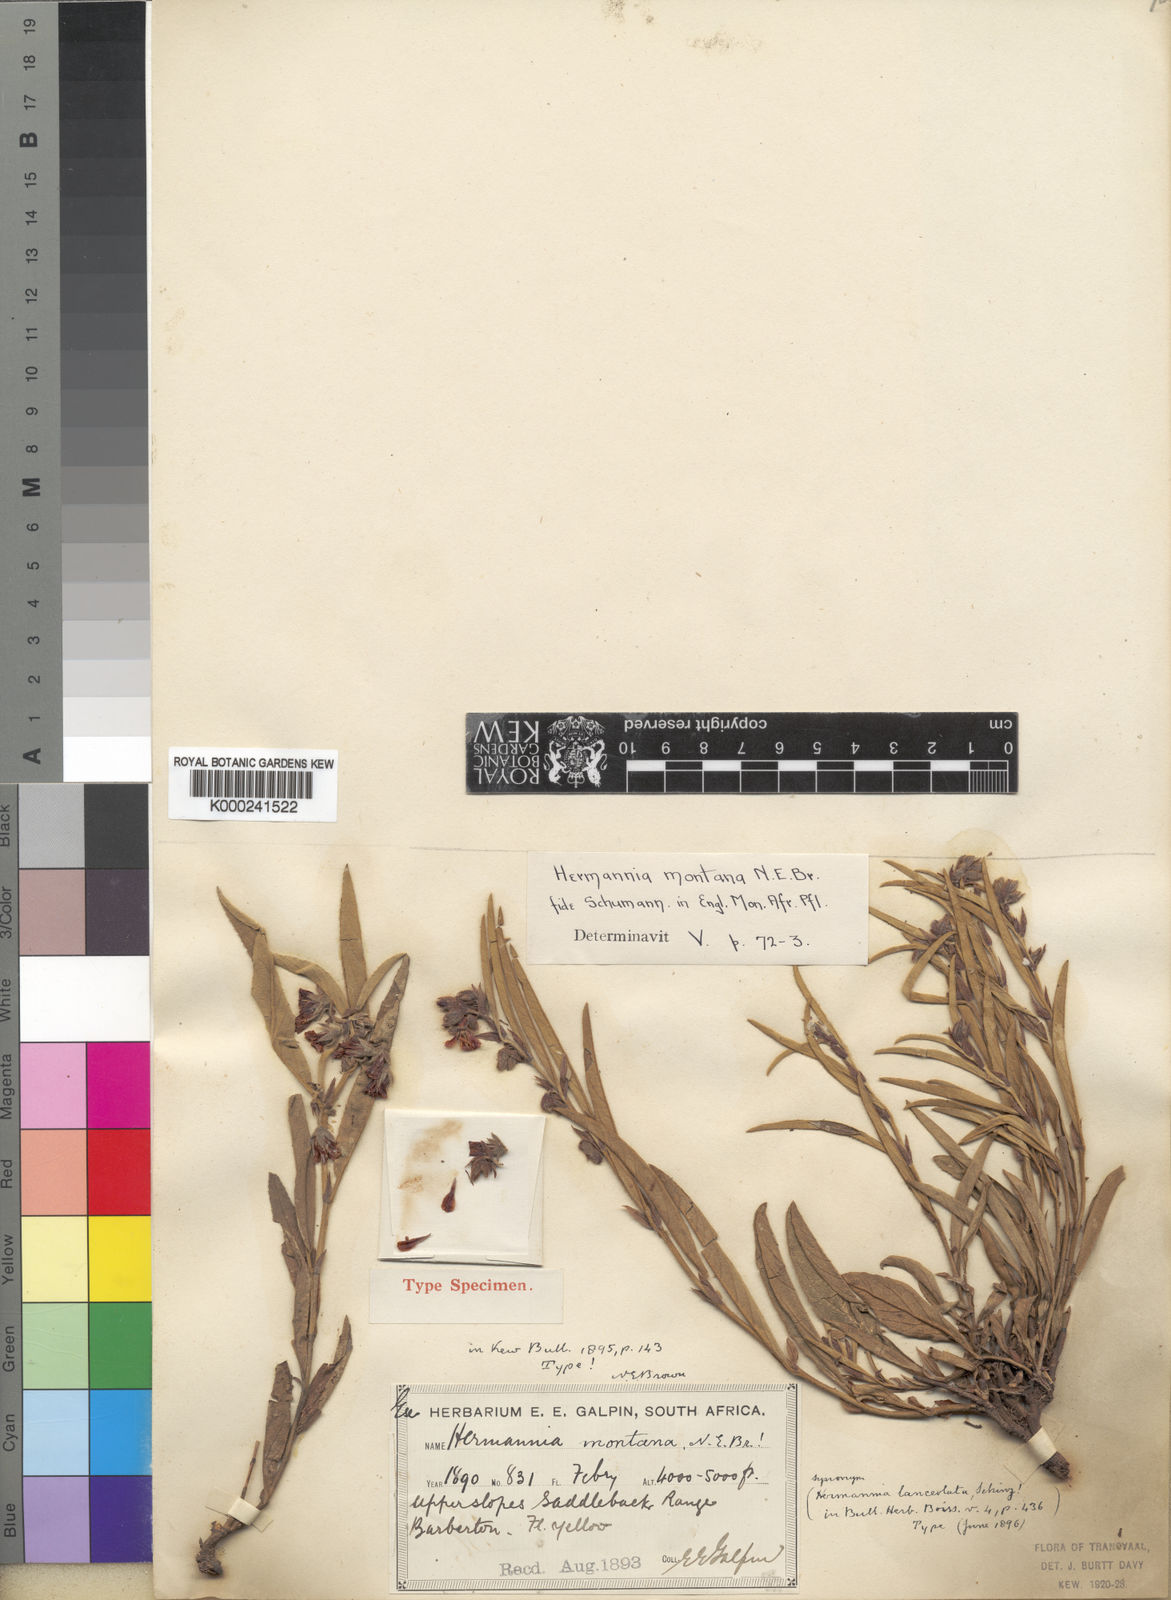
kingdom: Plantae
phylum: Tracheophyta
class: Magnoliopsida
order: Malvales
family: Malvaceae
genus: Hermannia
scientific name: Hermannia montana
